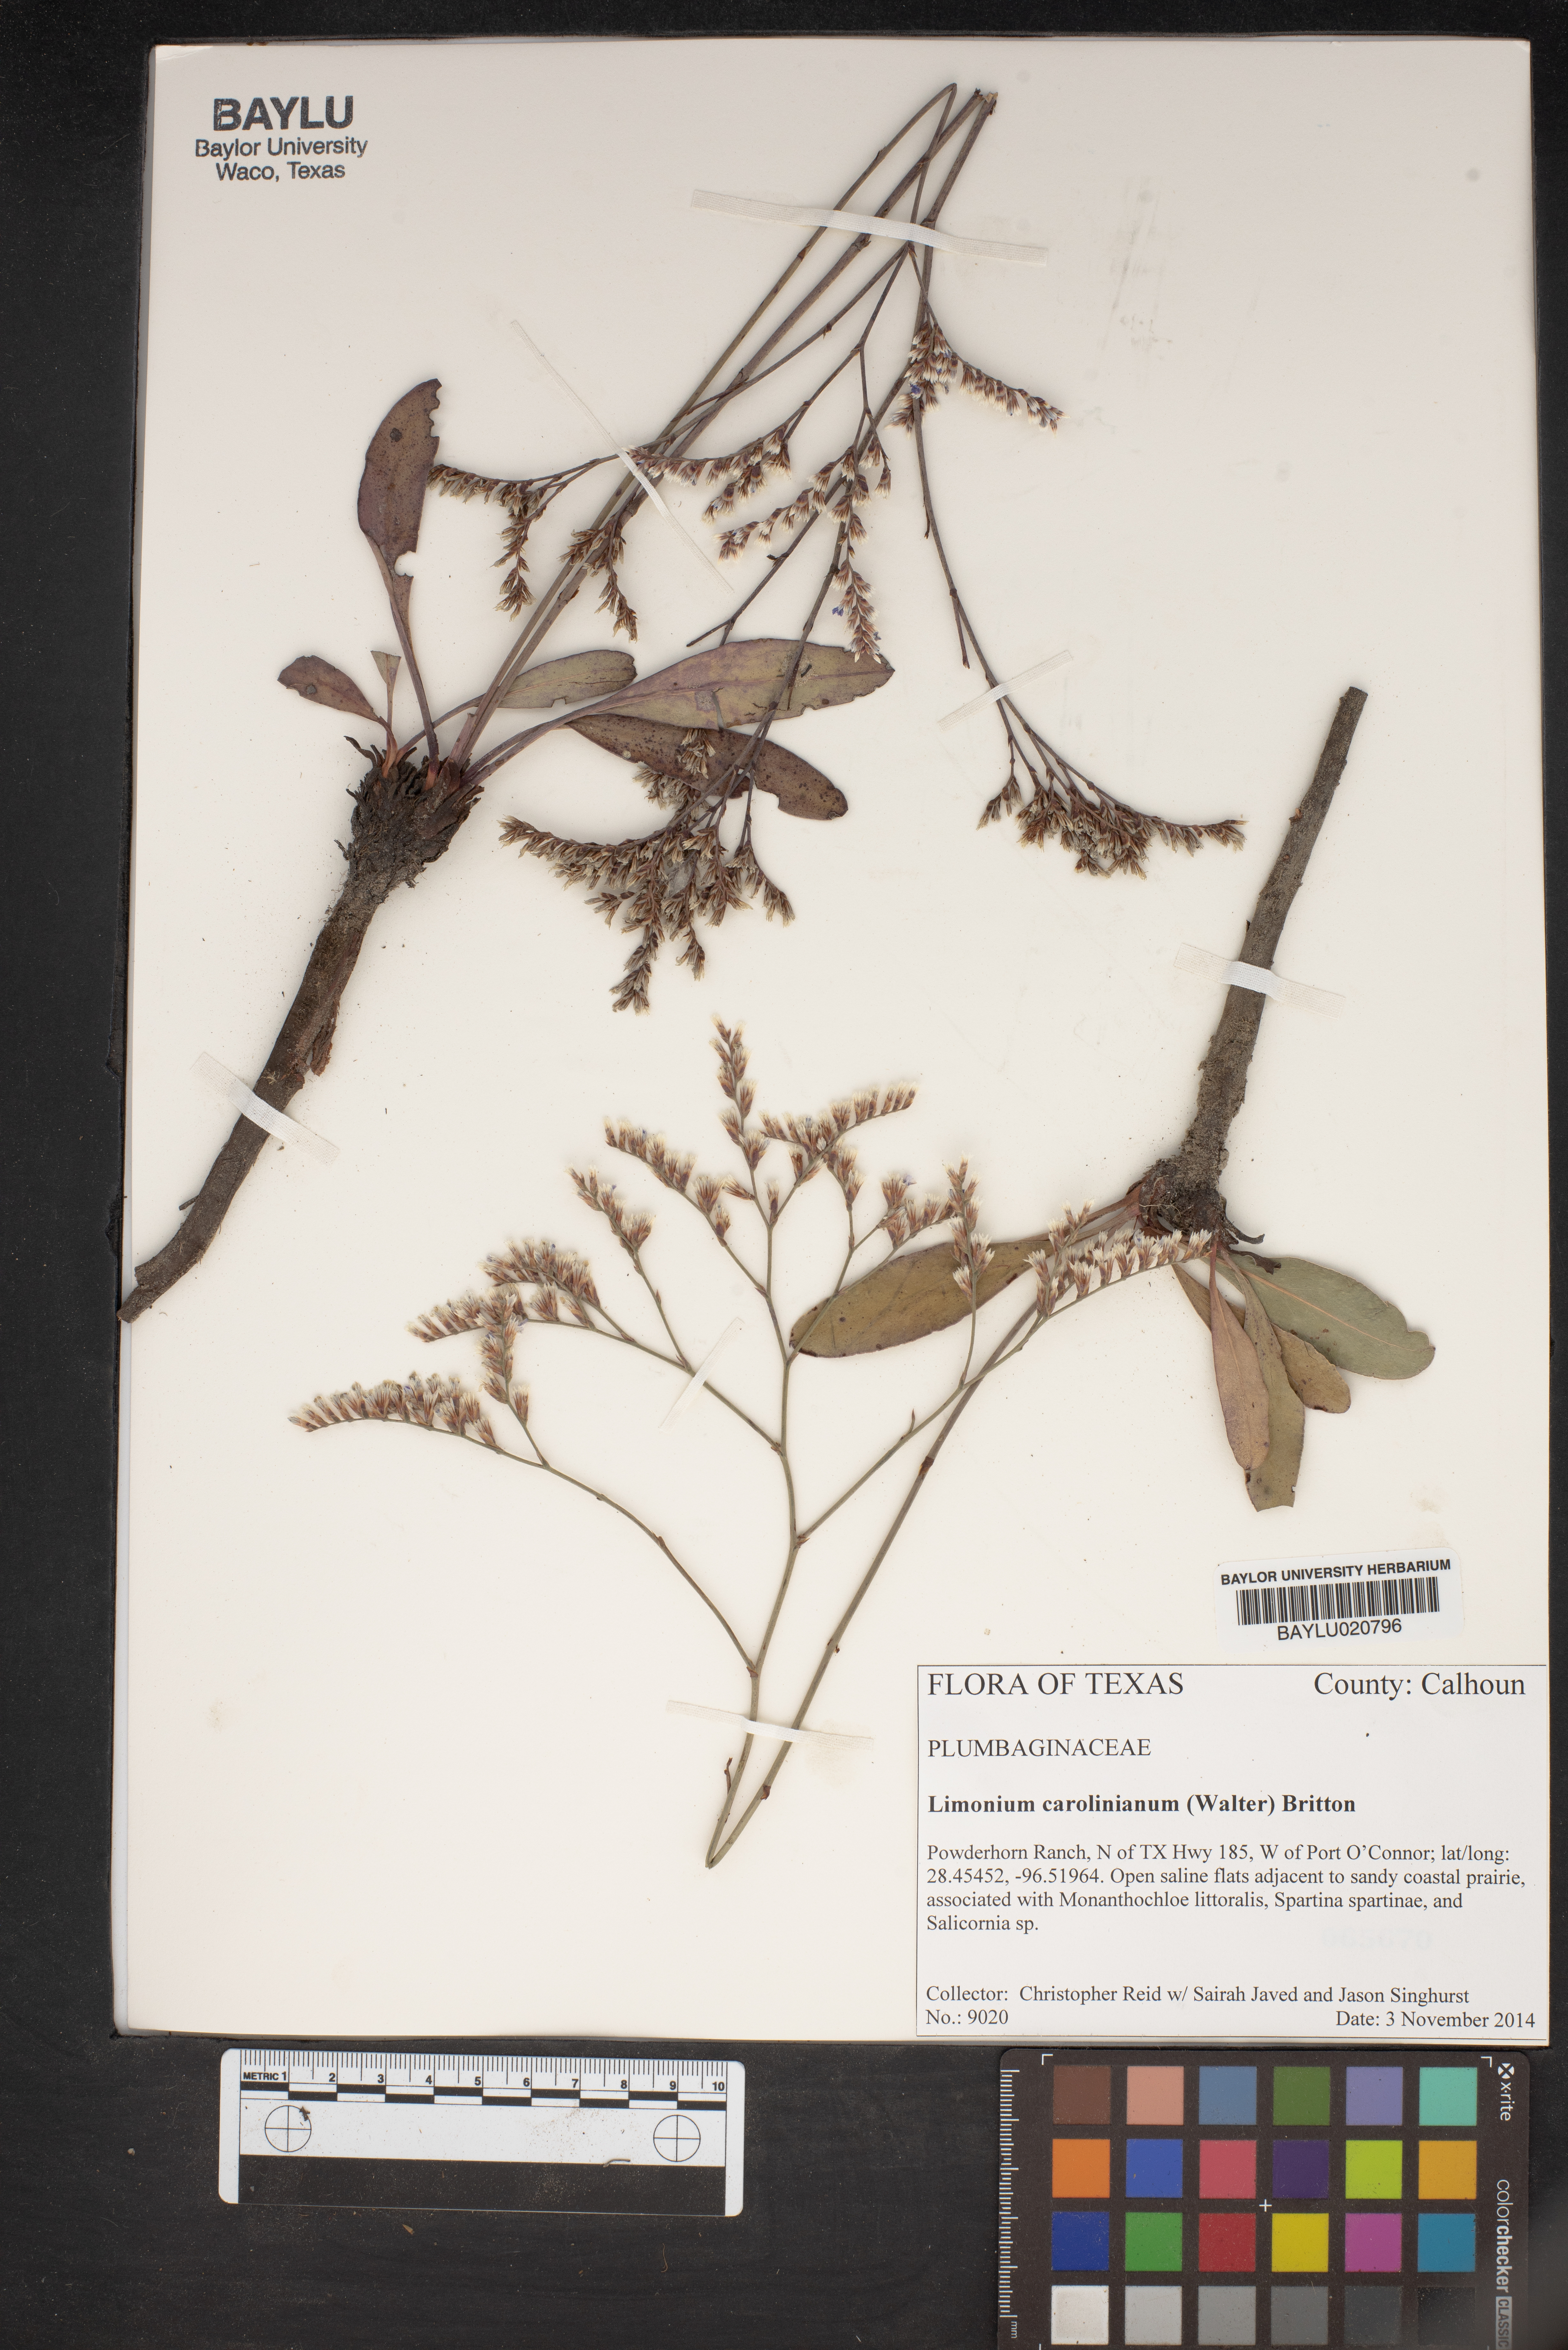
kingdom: Plantae
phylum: Tracheophyta
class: Magnoliopsida
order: Caryophyllales
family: Plumbaginaceae
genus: Limonium
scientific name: Limonium carolinianum
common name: Carolina sea lavender
